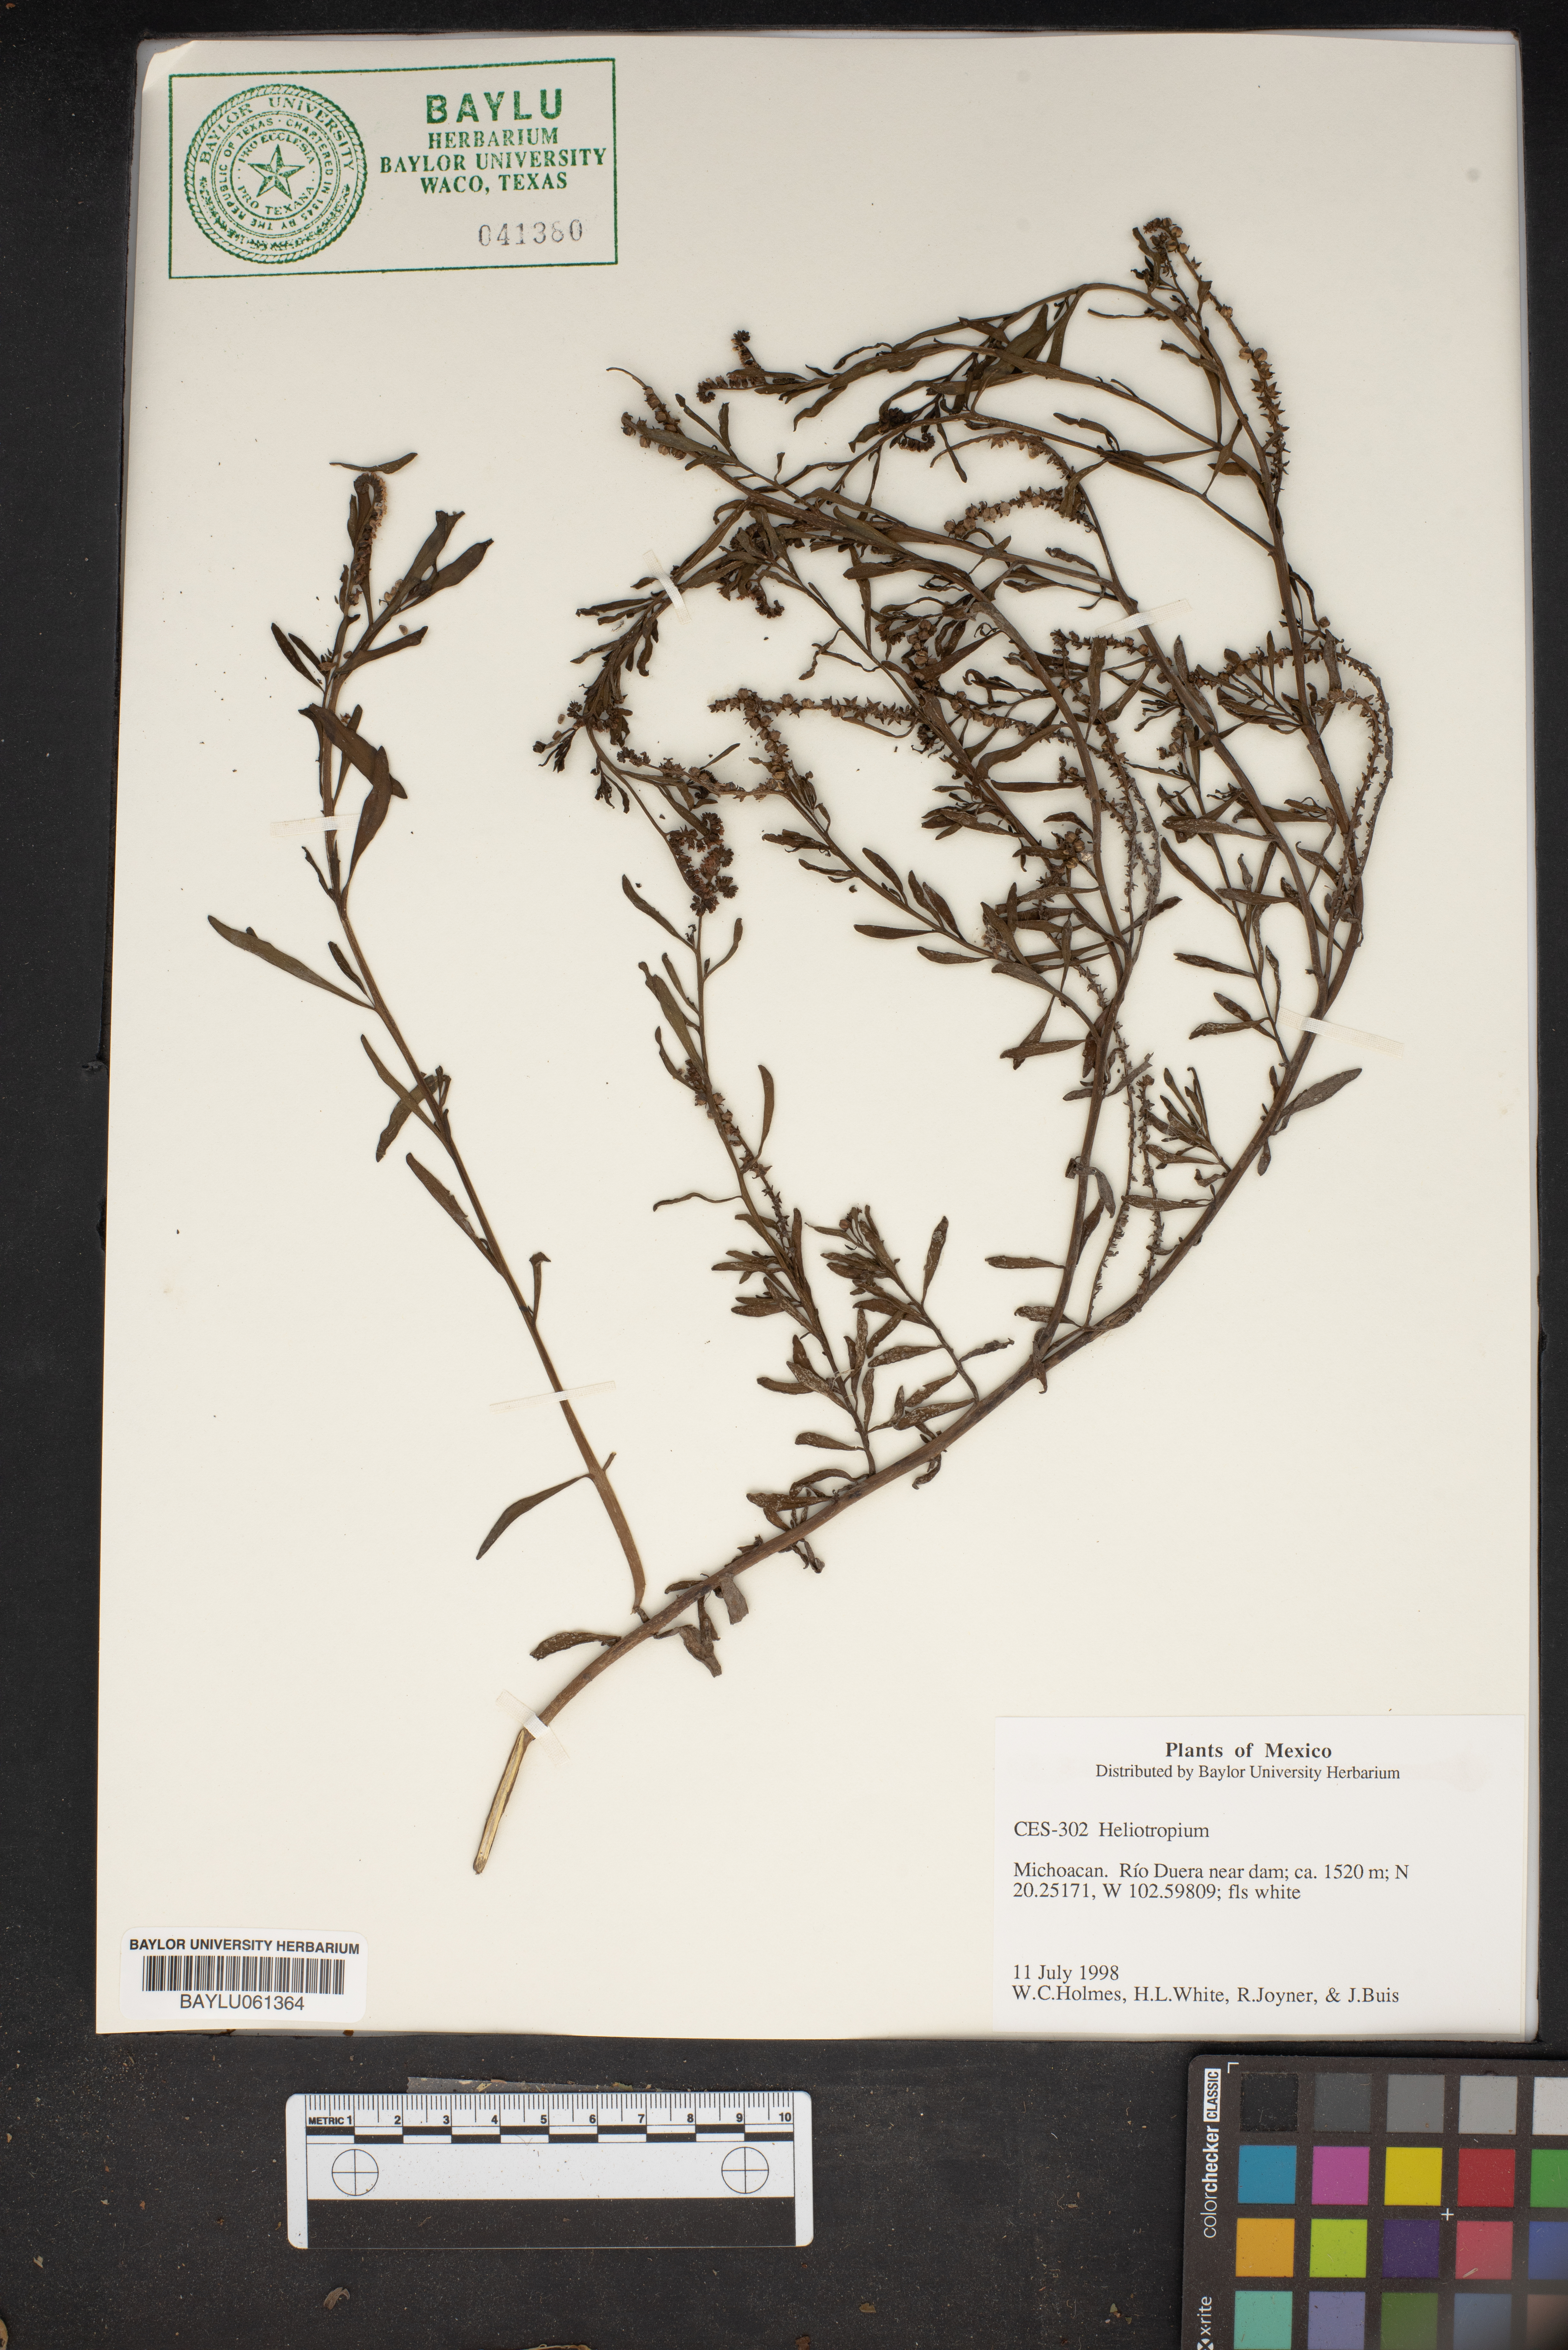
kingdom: Plantae
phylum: Tracheophyta
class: Magnoliopsida
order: Boraginales
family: Heliotropiaceae
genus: Heliotropium
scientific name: Heliotropium
